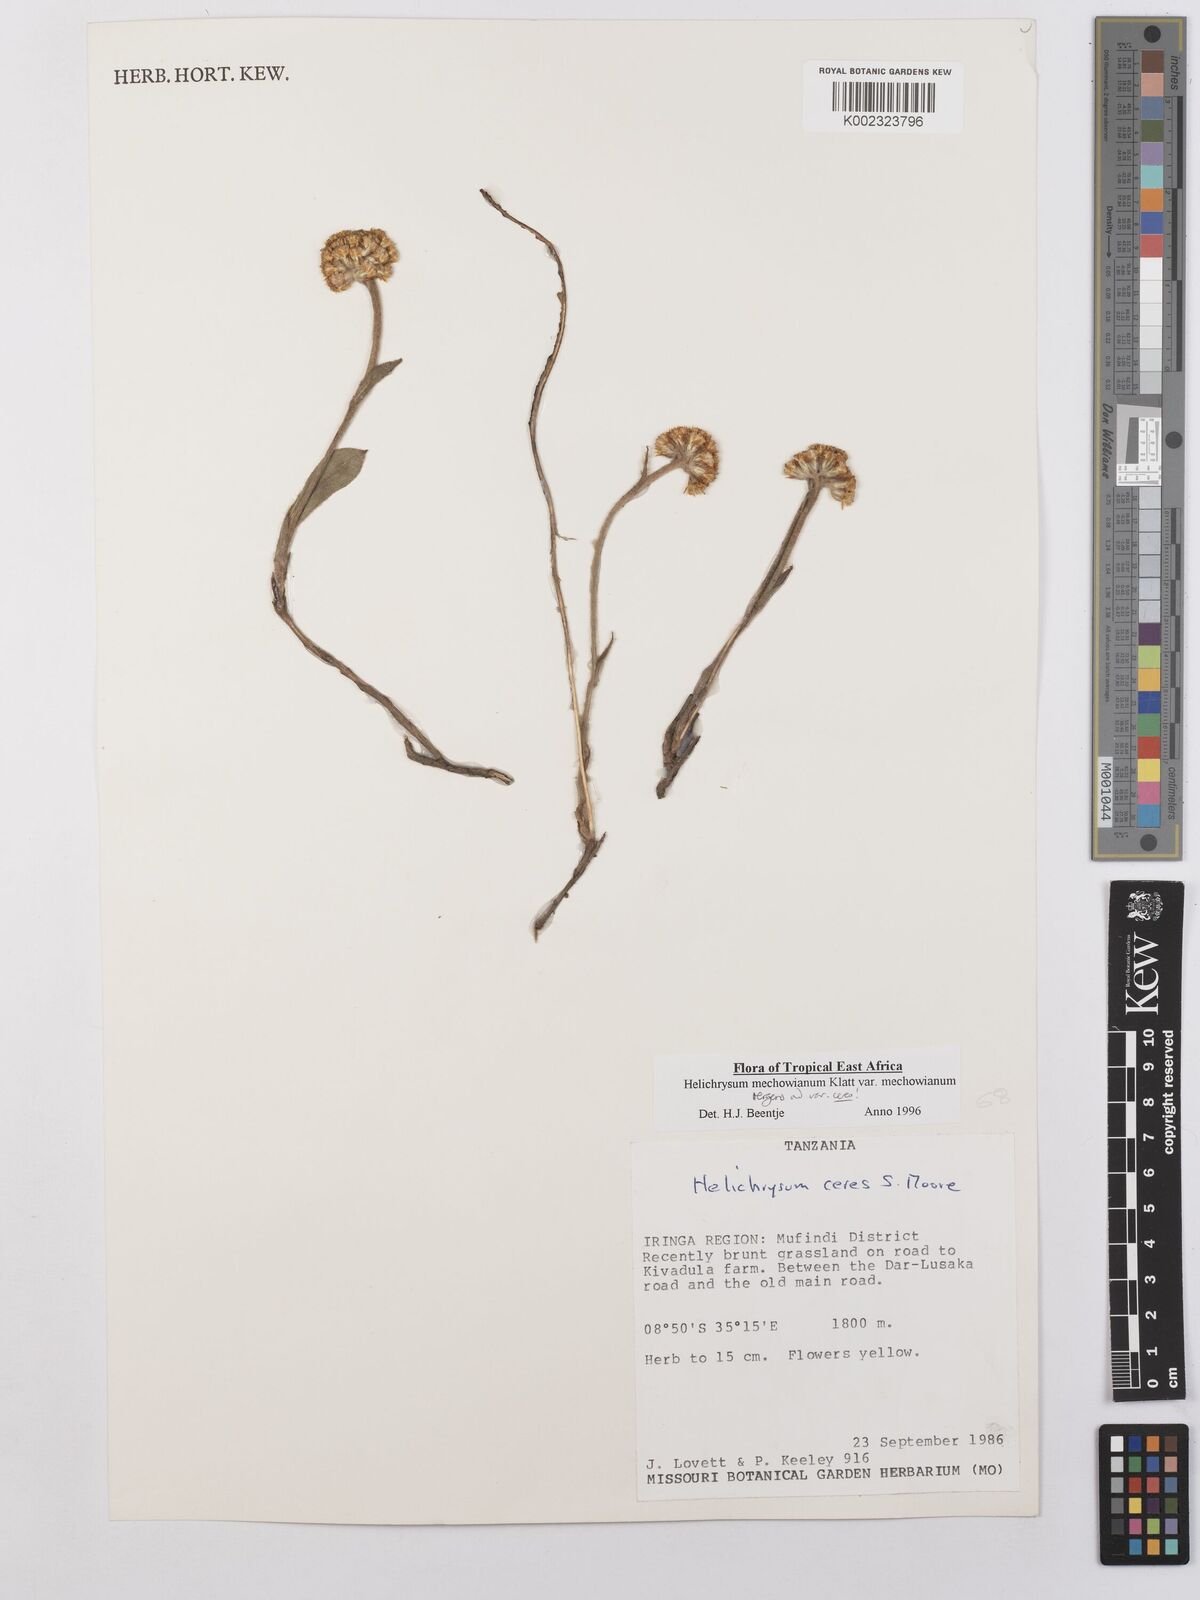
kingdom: Plantae
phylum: Tracheophyta
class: Magnoliopsida
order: Asterales
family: Asteraceae
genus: Helichrysum
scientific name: Helichrysum mechowianum
